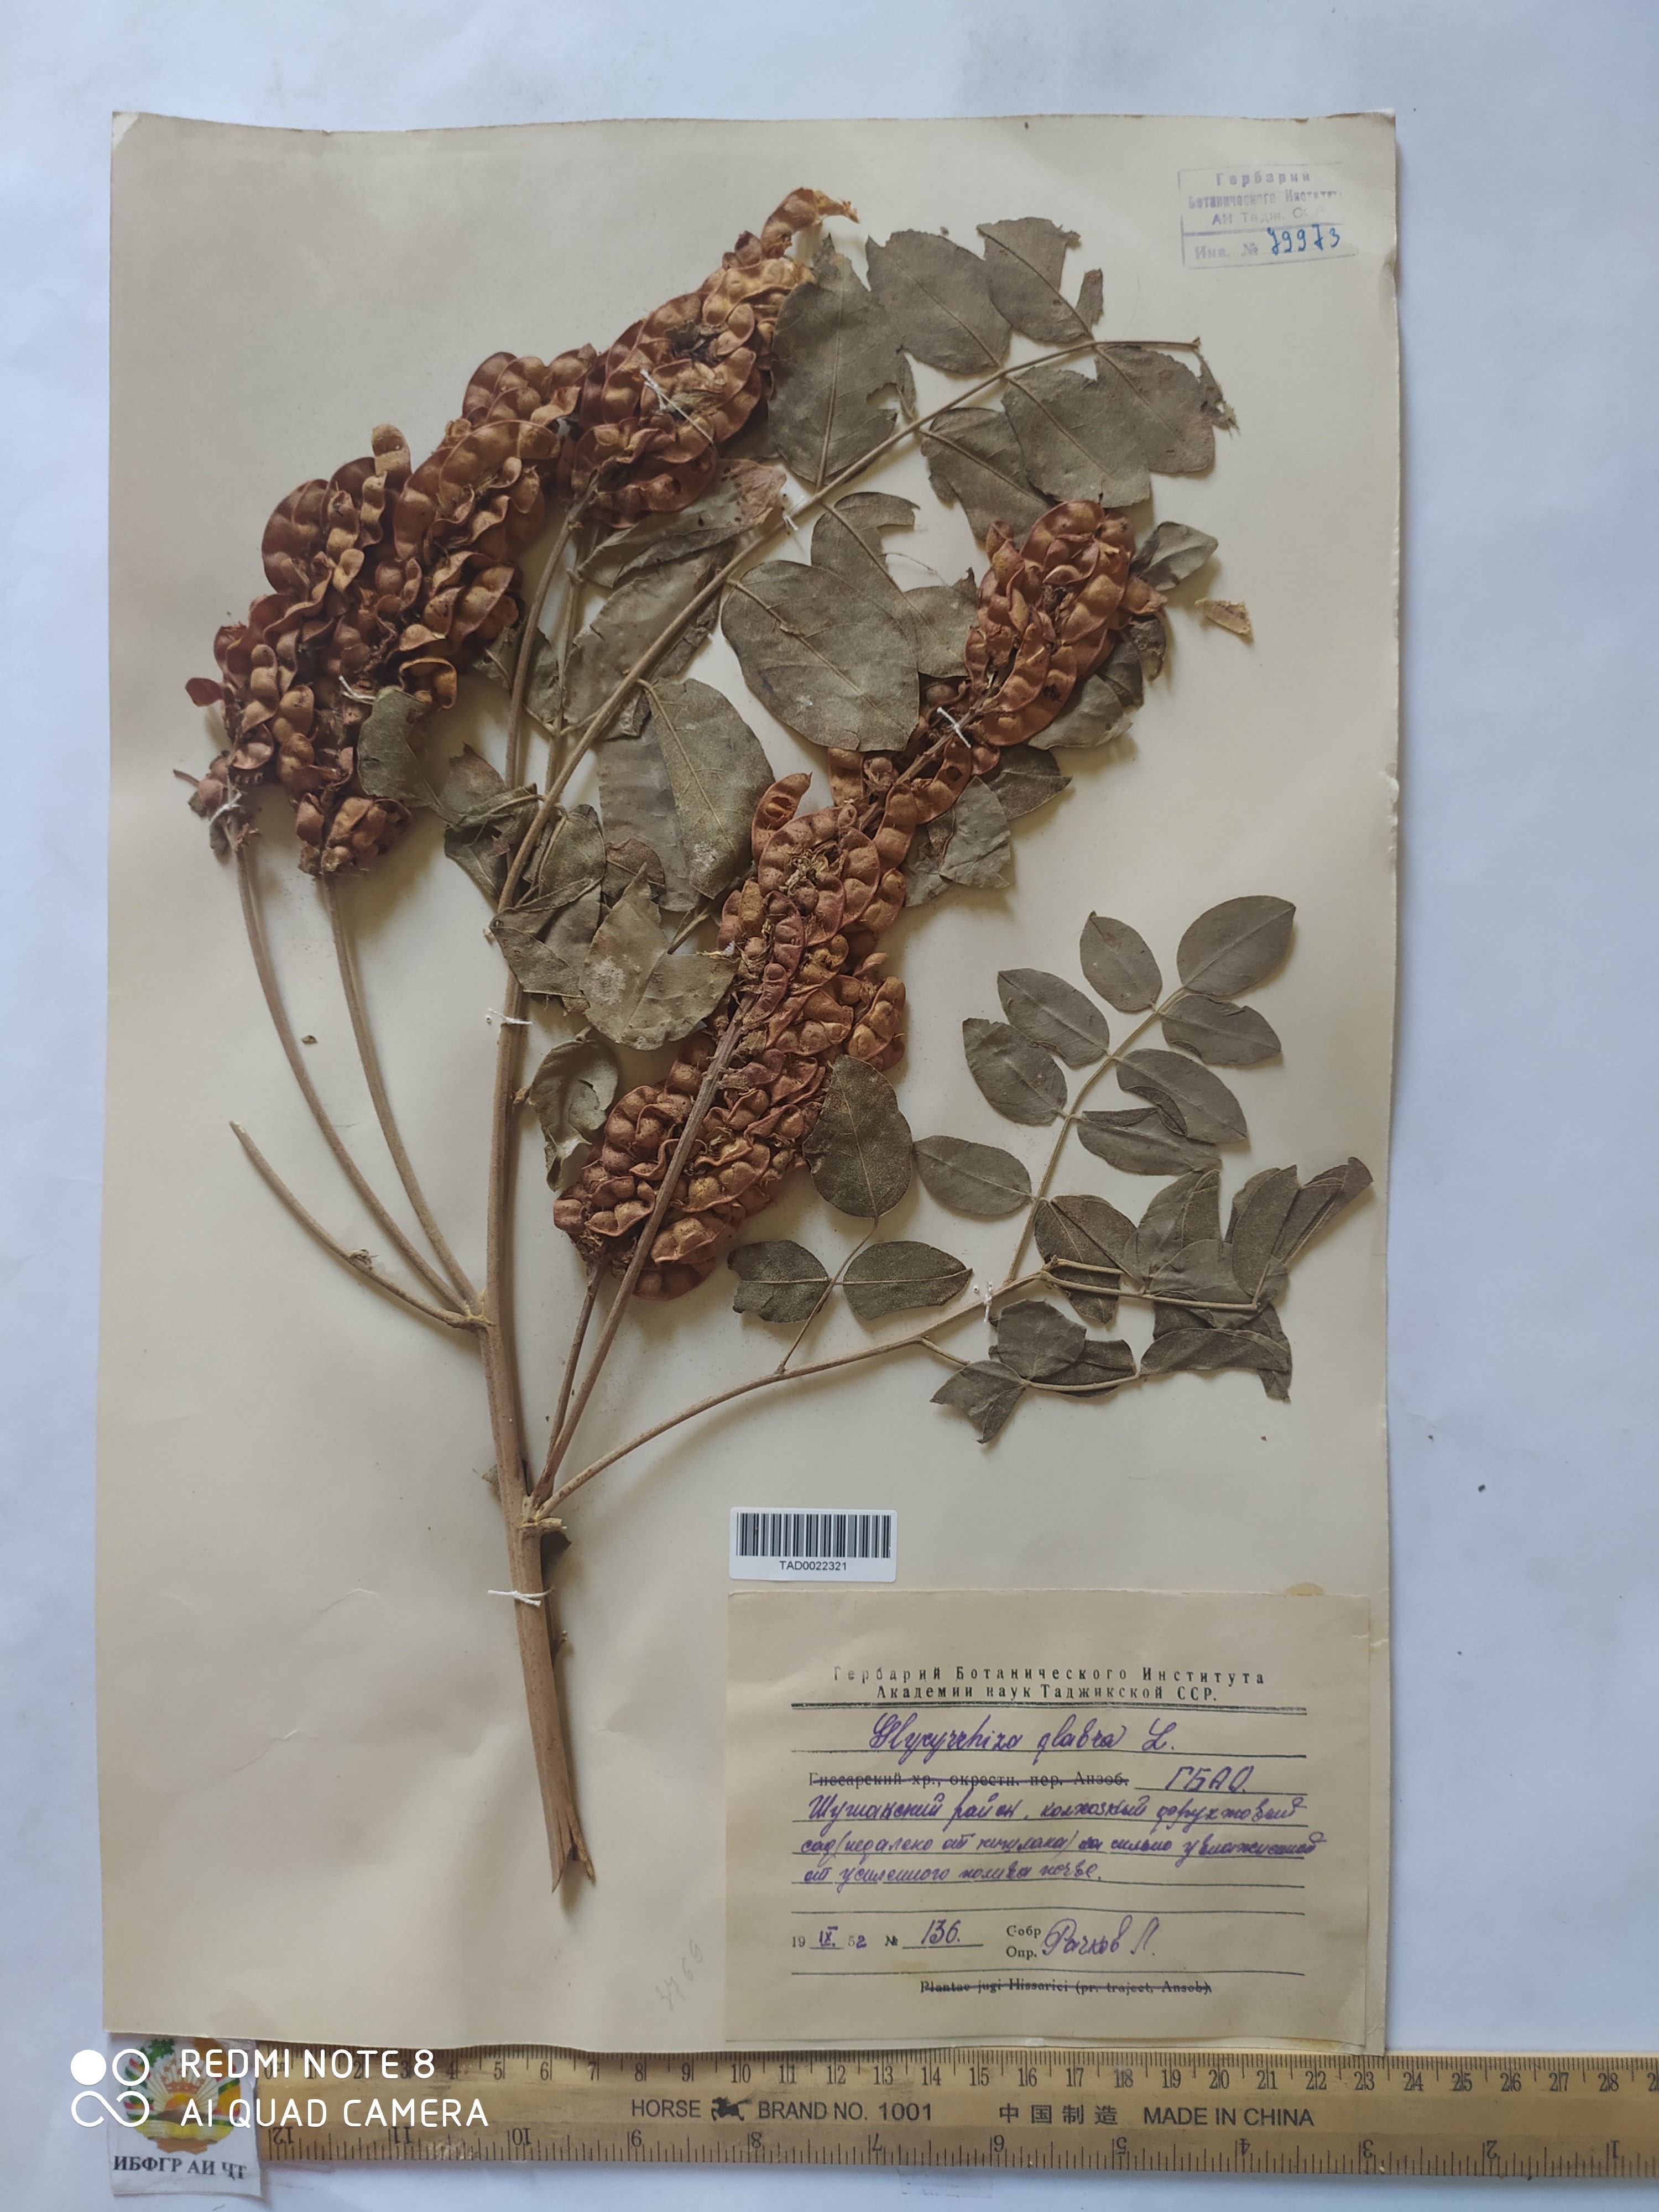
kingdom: Plantae
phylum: Tracheophyta
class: Magnoliopsida
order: Fabales
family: Fabaceae
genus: Glycyrrhiza
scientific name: Glycyrrhiza glabra
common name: Liquorice
